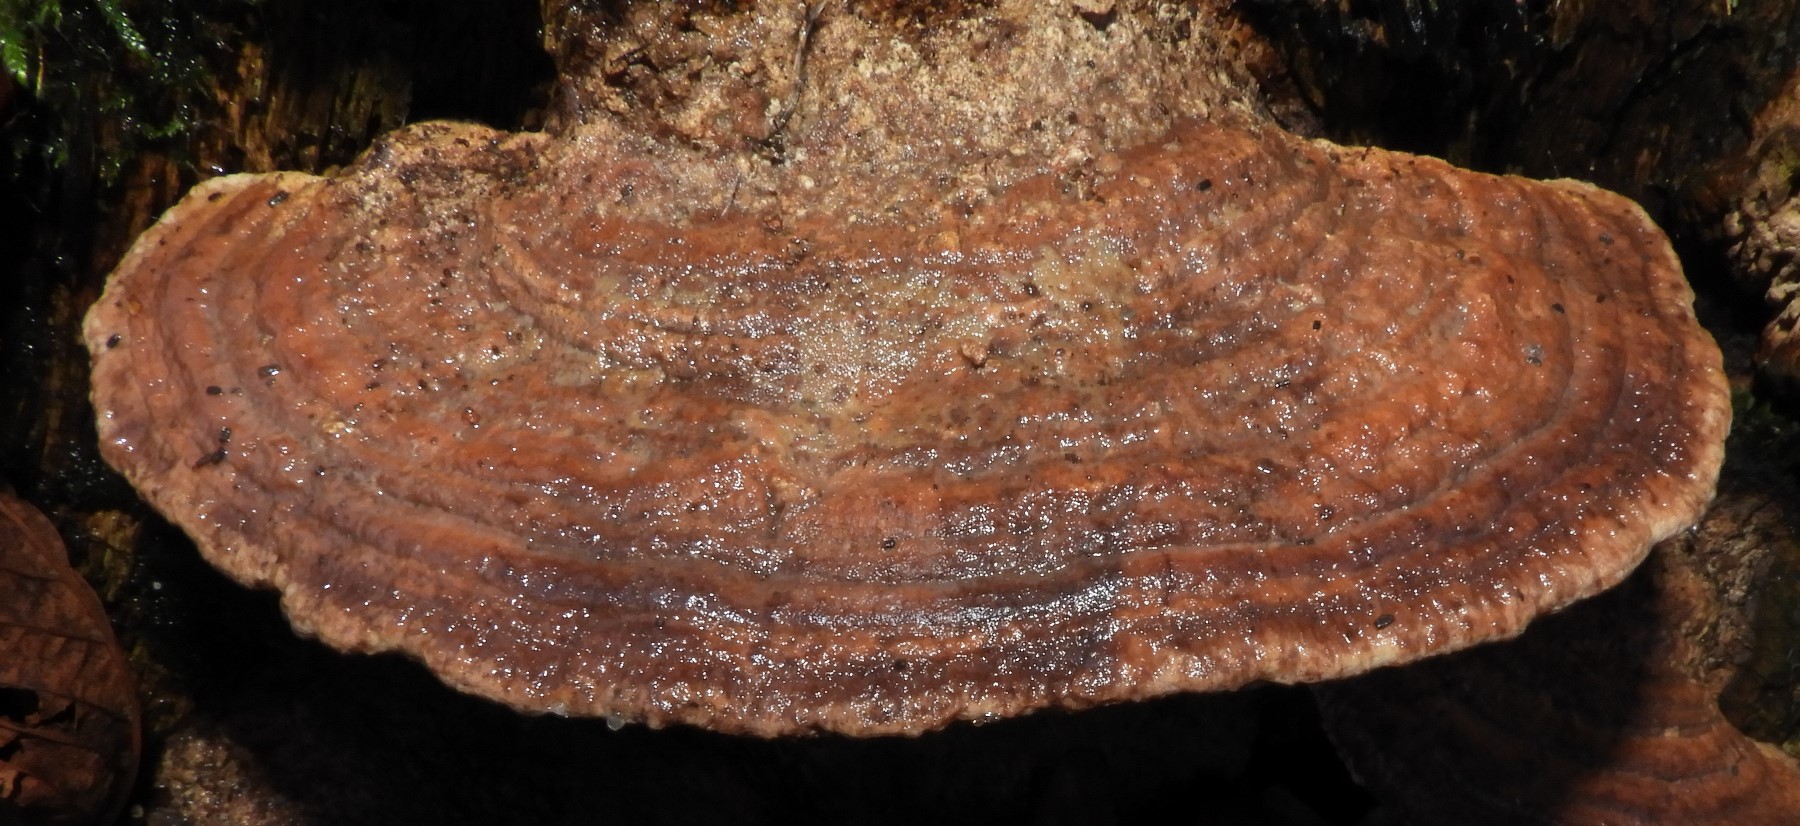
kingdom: Fungi
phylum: Basidiomycota
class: Agaricomycetes
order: Polyporales
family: Fomitopsidaceae
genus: Daedalea
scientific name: Daedalea quercina
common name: ege-labyrintsvamp
